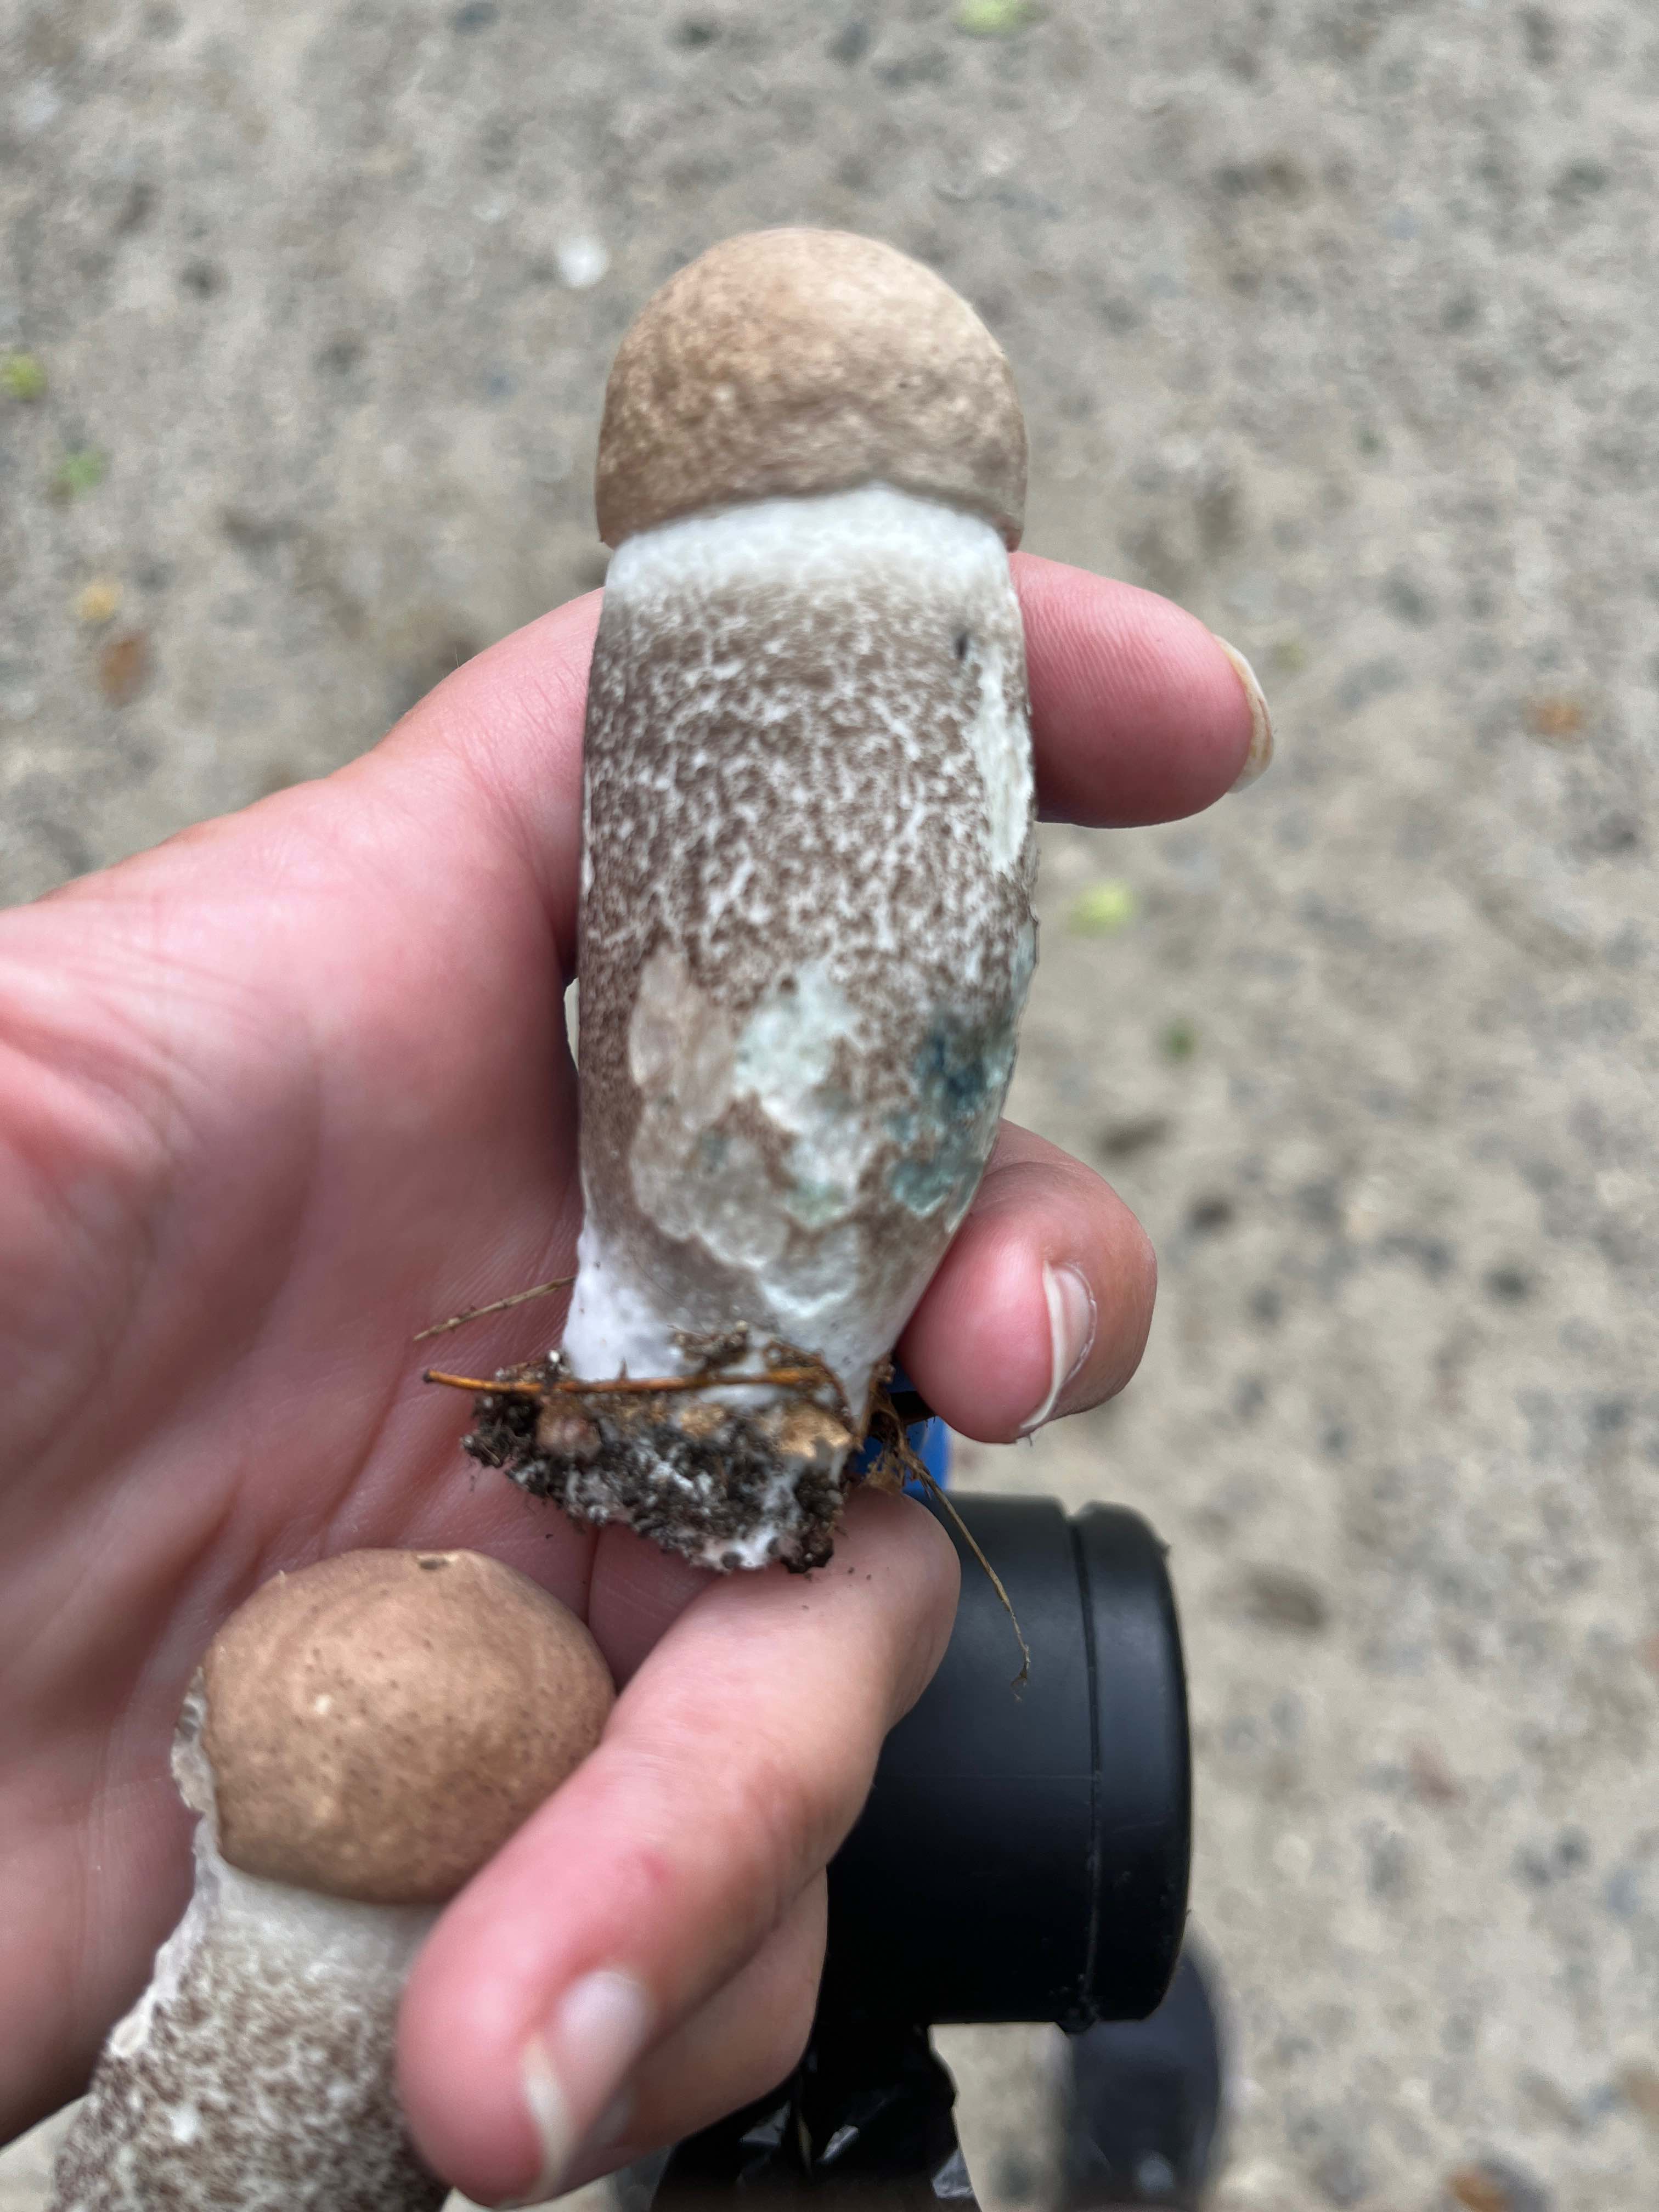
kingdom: Fungi
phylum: Basidiomycota
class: Agaricomycetes
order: Boletales
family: Boletaceae
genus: Leccinum
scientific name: Leccinum duriusculum
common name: poppel-skælrørhat
